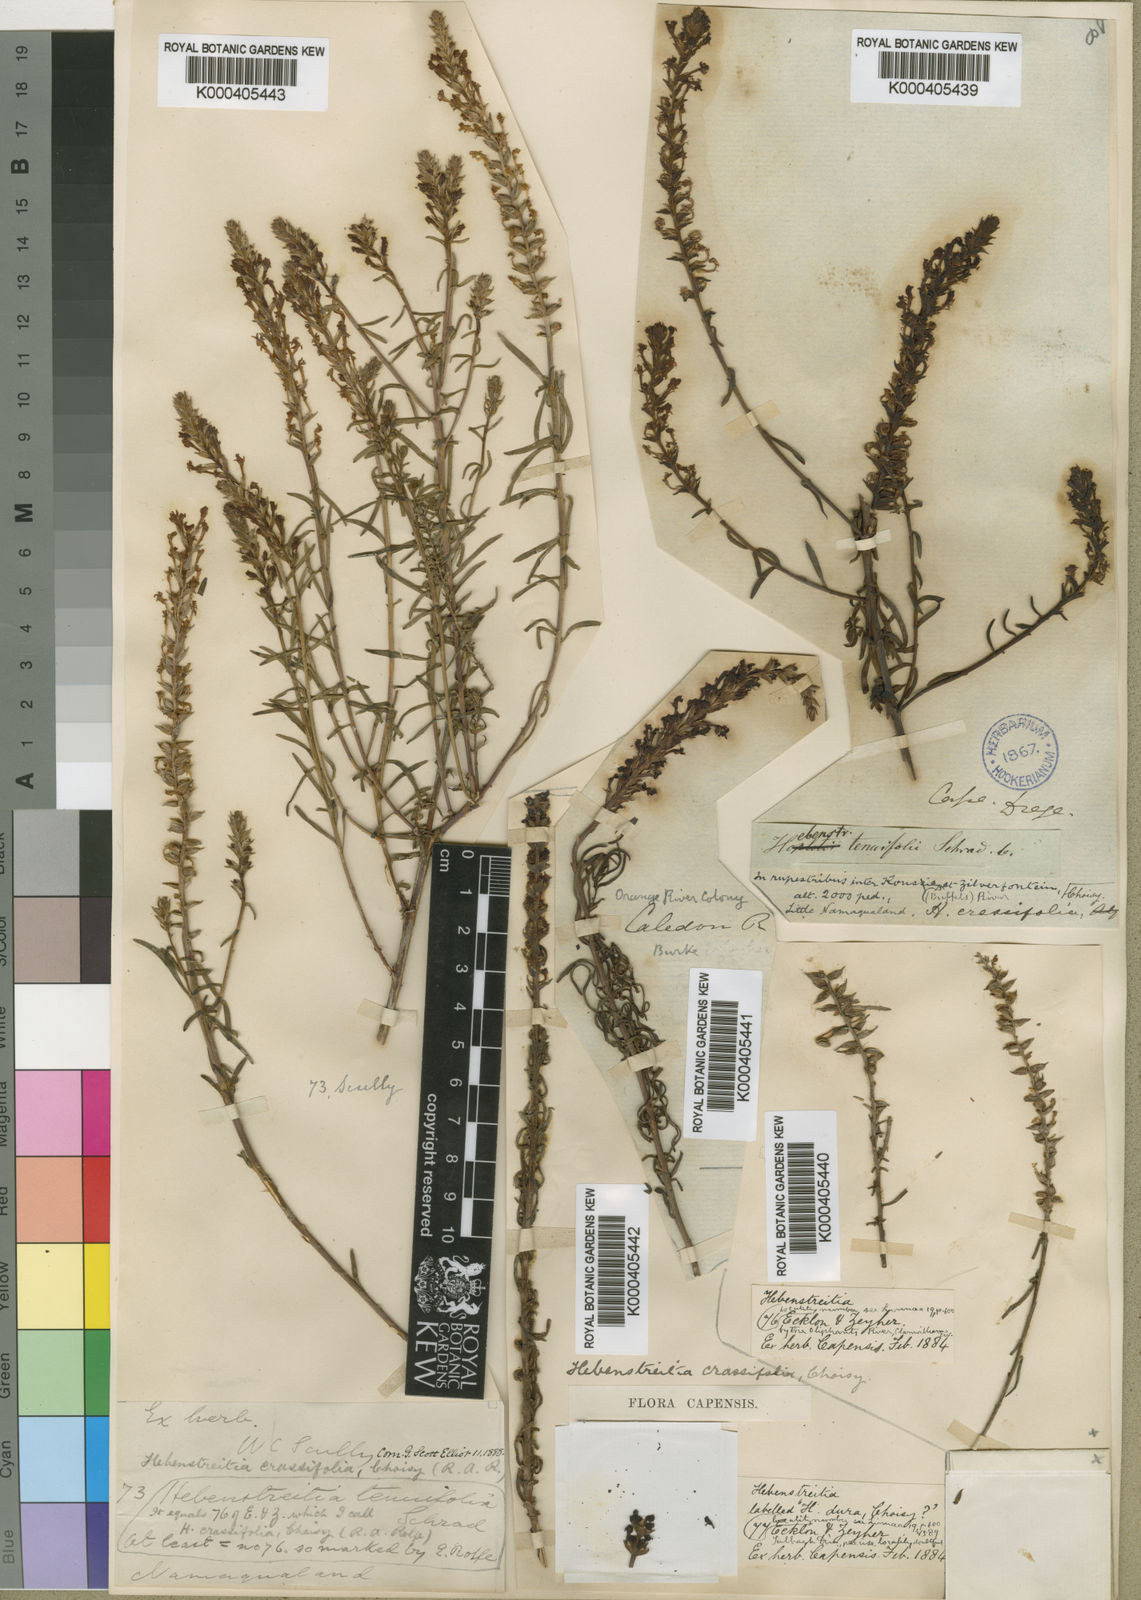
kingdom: Plantae
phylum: Tracheophyta
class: Magnoliopsida
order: Lamiales
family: Scrophulariaceae
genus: Hebenstretia
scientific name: Hebenstretia robusta
